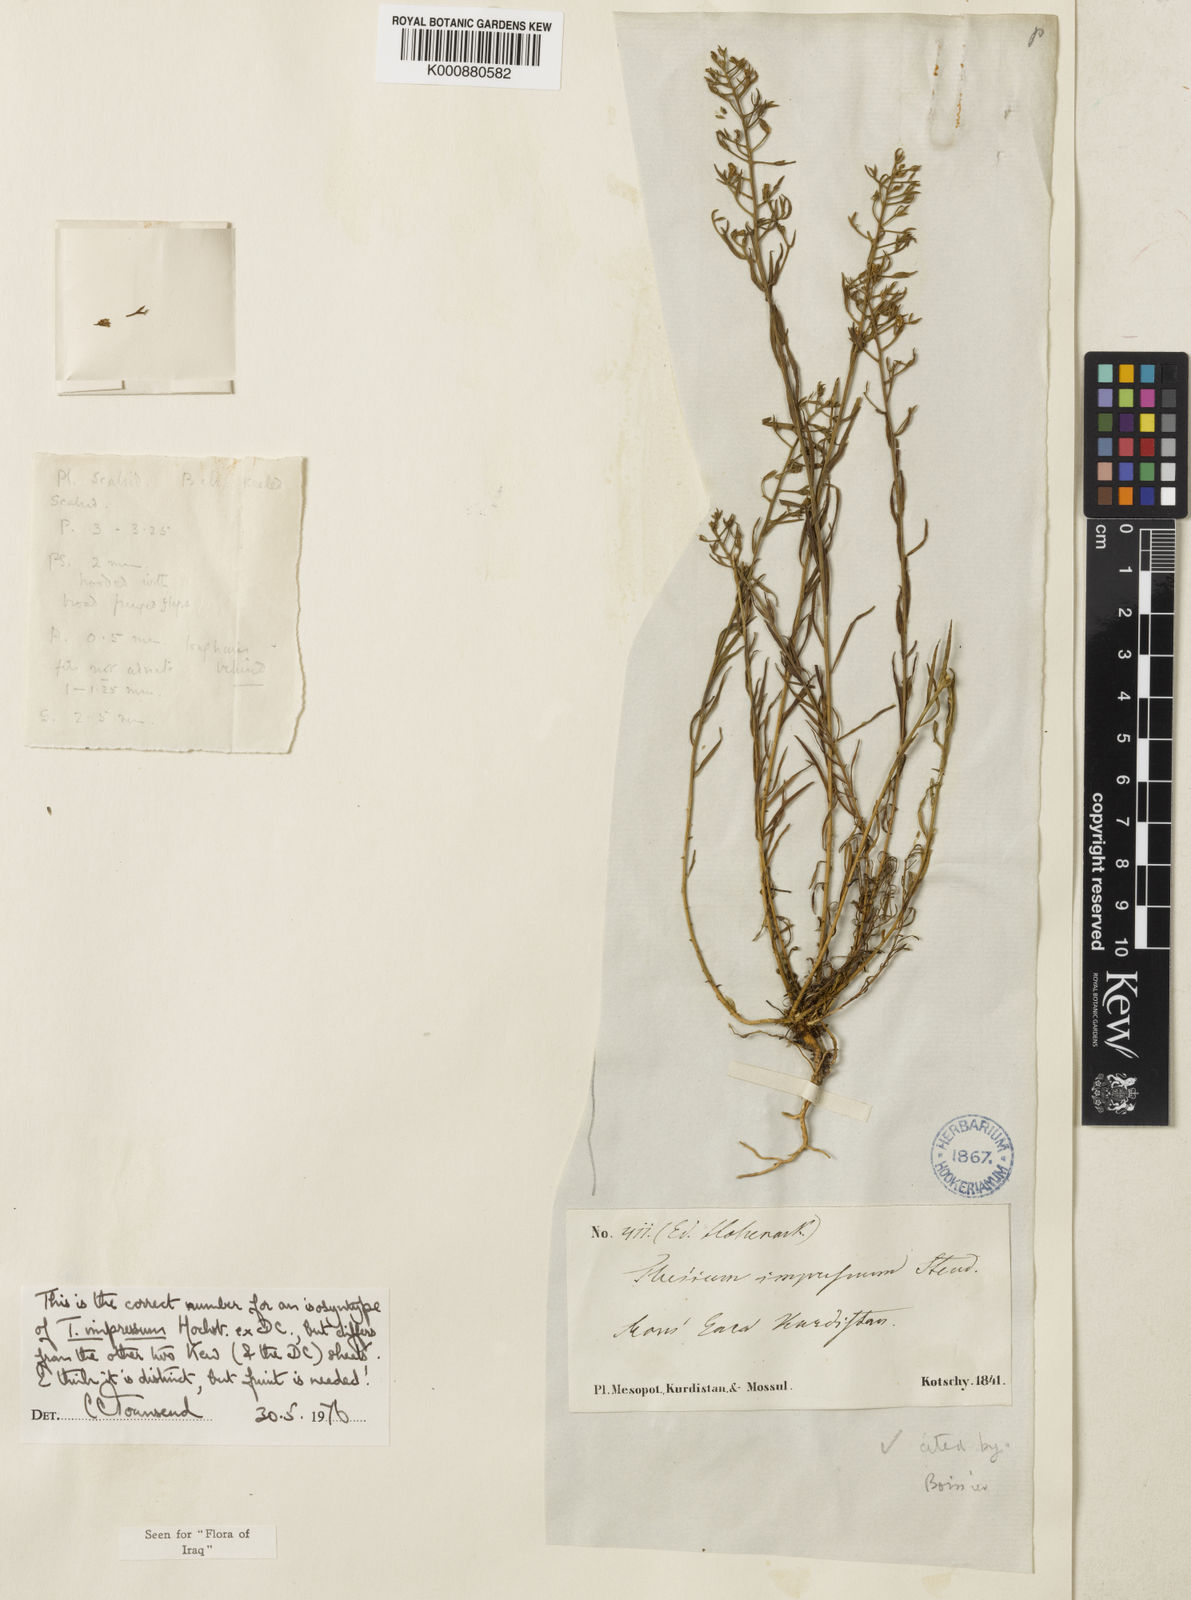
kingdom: Plantae
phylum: Tracheophyta
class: Magnoliopsida
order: Santalales
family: Thesiaceae
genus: Thesium
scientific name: Thesium kotschyanum
